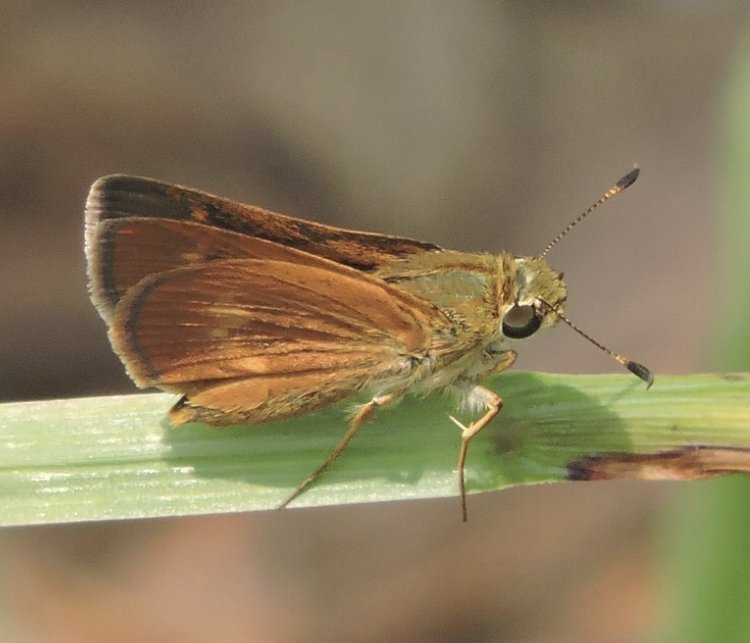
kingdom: Animalia
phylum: Arthropoda
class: Insecta
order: Lepidoptera
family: Hesperiidae
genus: Wallengrenia
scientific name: Wallengrenia otho
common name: Southern Broken-Dash
